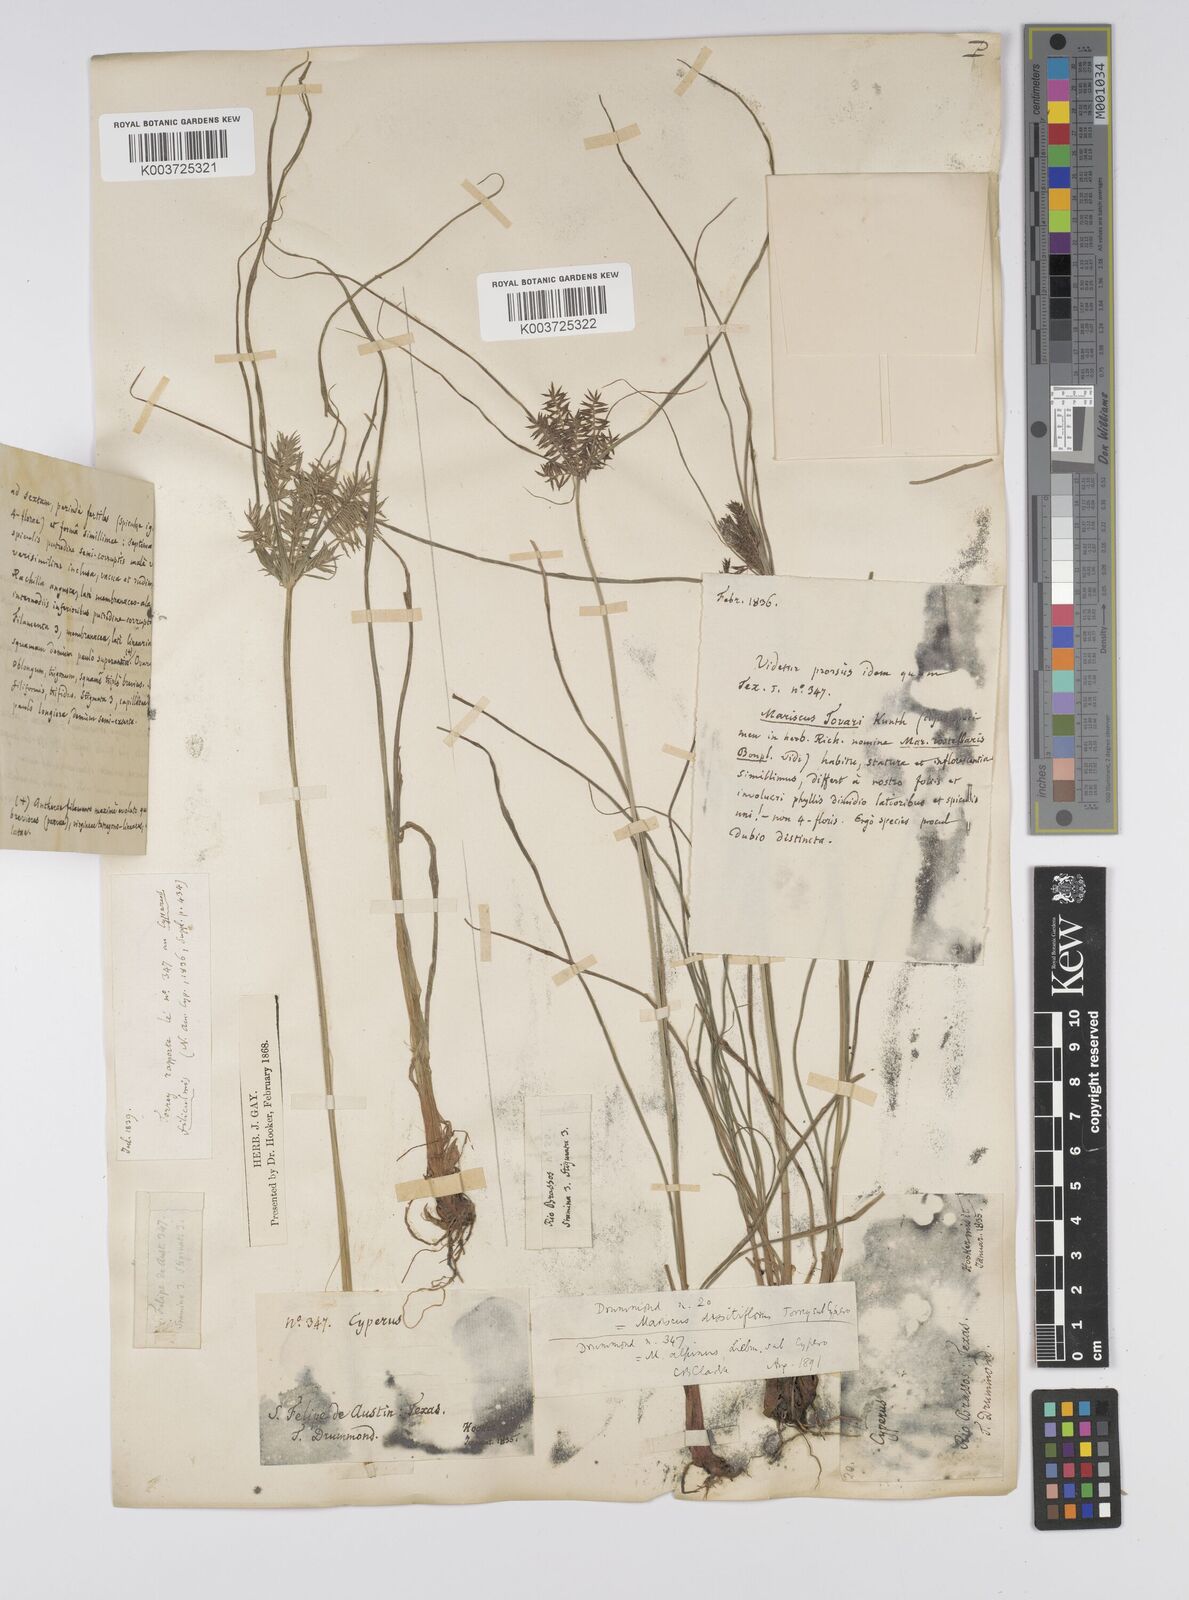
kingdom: Plantae
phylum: Tracheophyta
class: Liliopsida
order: Poales
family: Cyperaceae
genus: Cyperus
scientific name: Cyperus
